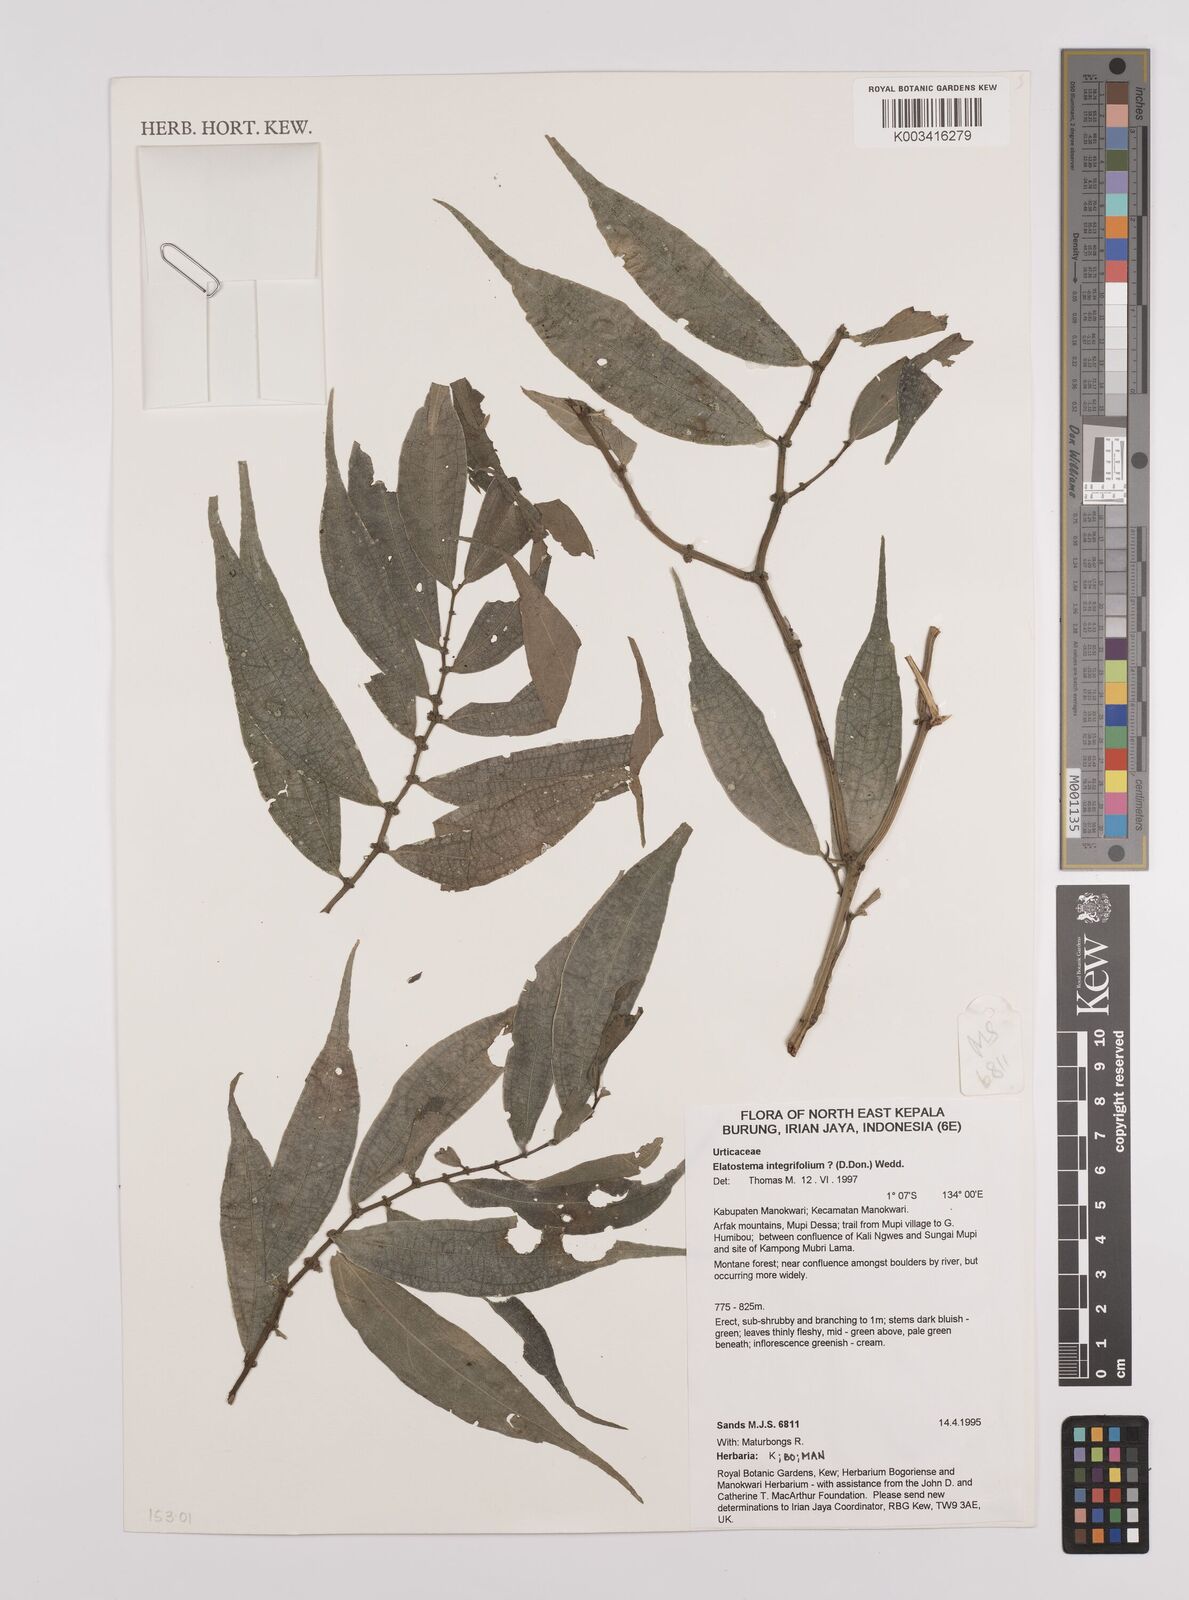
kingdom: Plantae
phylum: Tracheophyta
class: Magnoliopsida
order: Rosales
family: Urticaceae
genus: Elatostema
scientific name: Elatostema integrifolium
